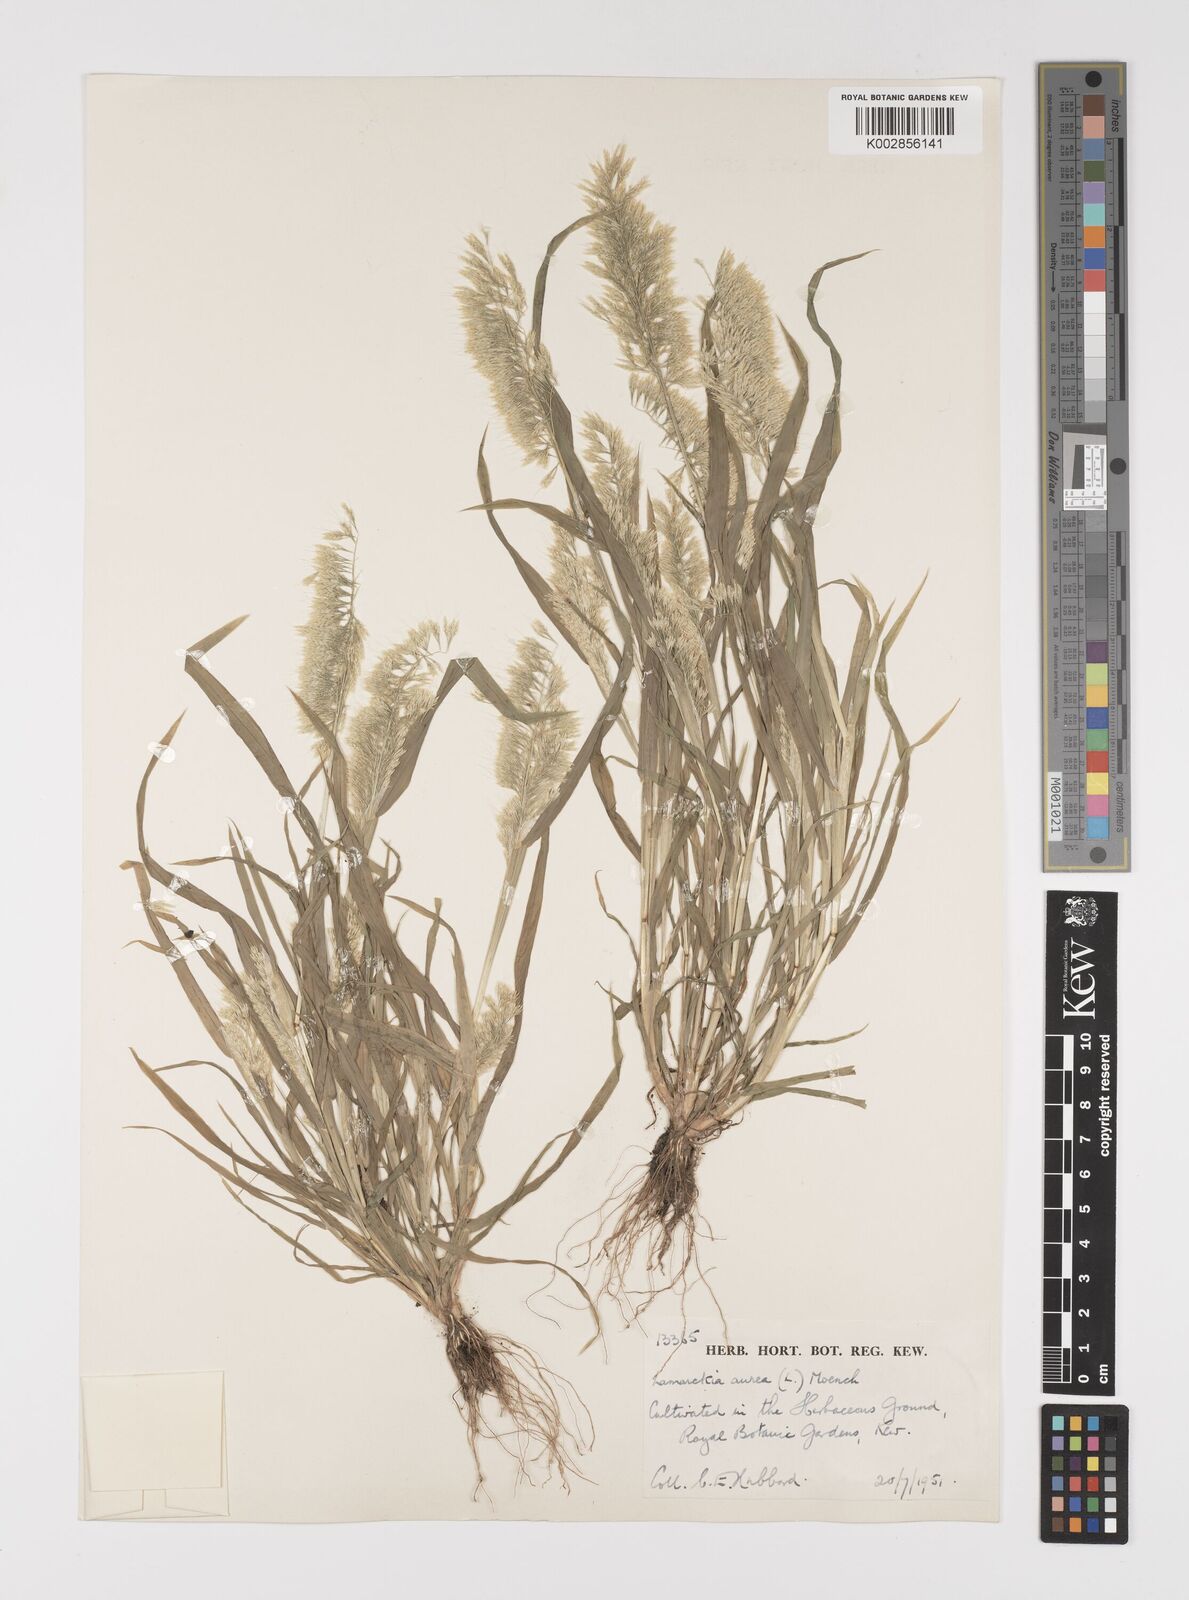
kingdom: Plantae
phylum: Tracheophyta
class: Liliopsida
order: Poales
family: Poaceae
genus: Lamarckia
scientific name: Lamarckia aurea
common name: Golden dog's-tail
